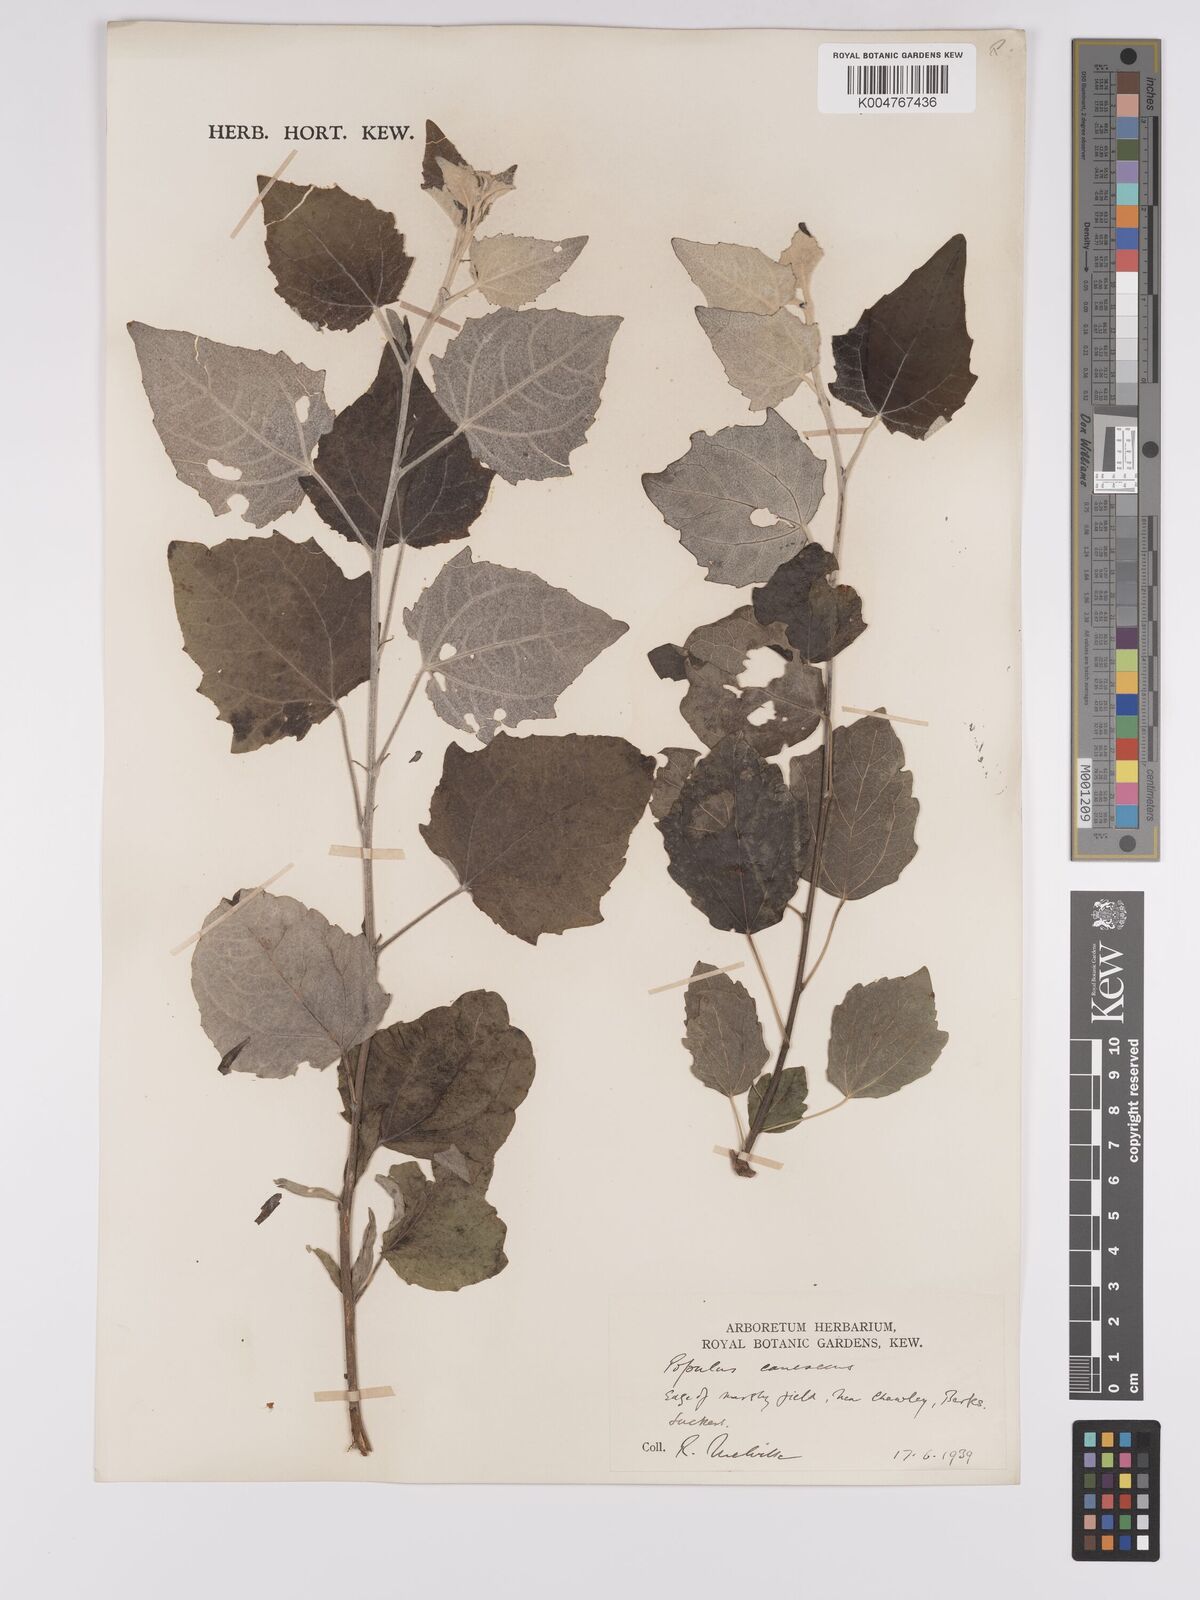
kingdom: Plantae
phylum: Tracheophyta
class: Magnoliopsida
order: Malpighiales
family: Salicaceae
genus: Populus
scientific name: Populus canescens
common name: Gray poplar
